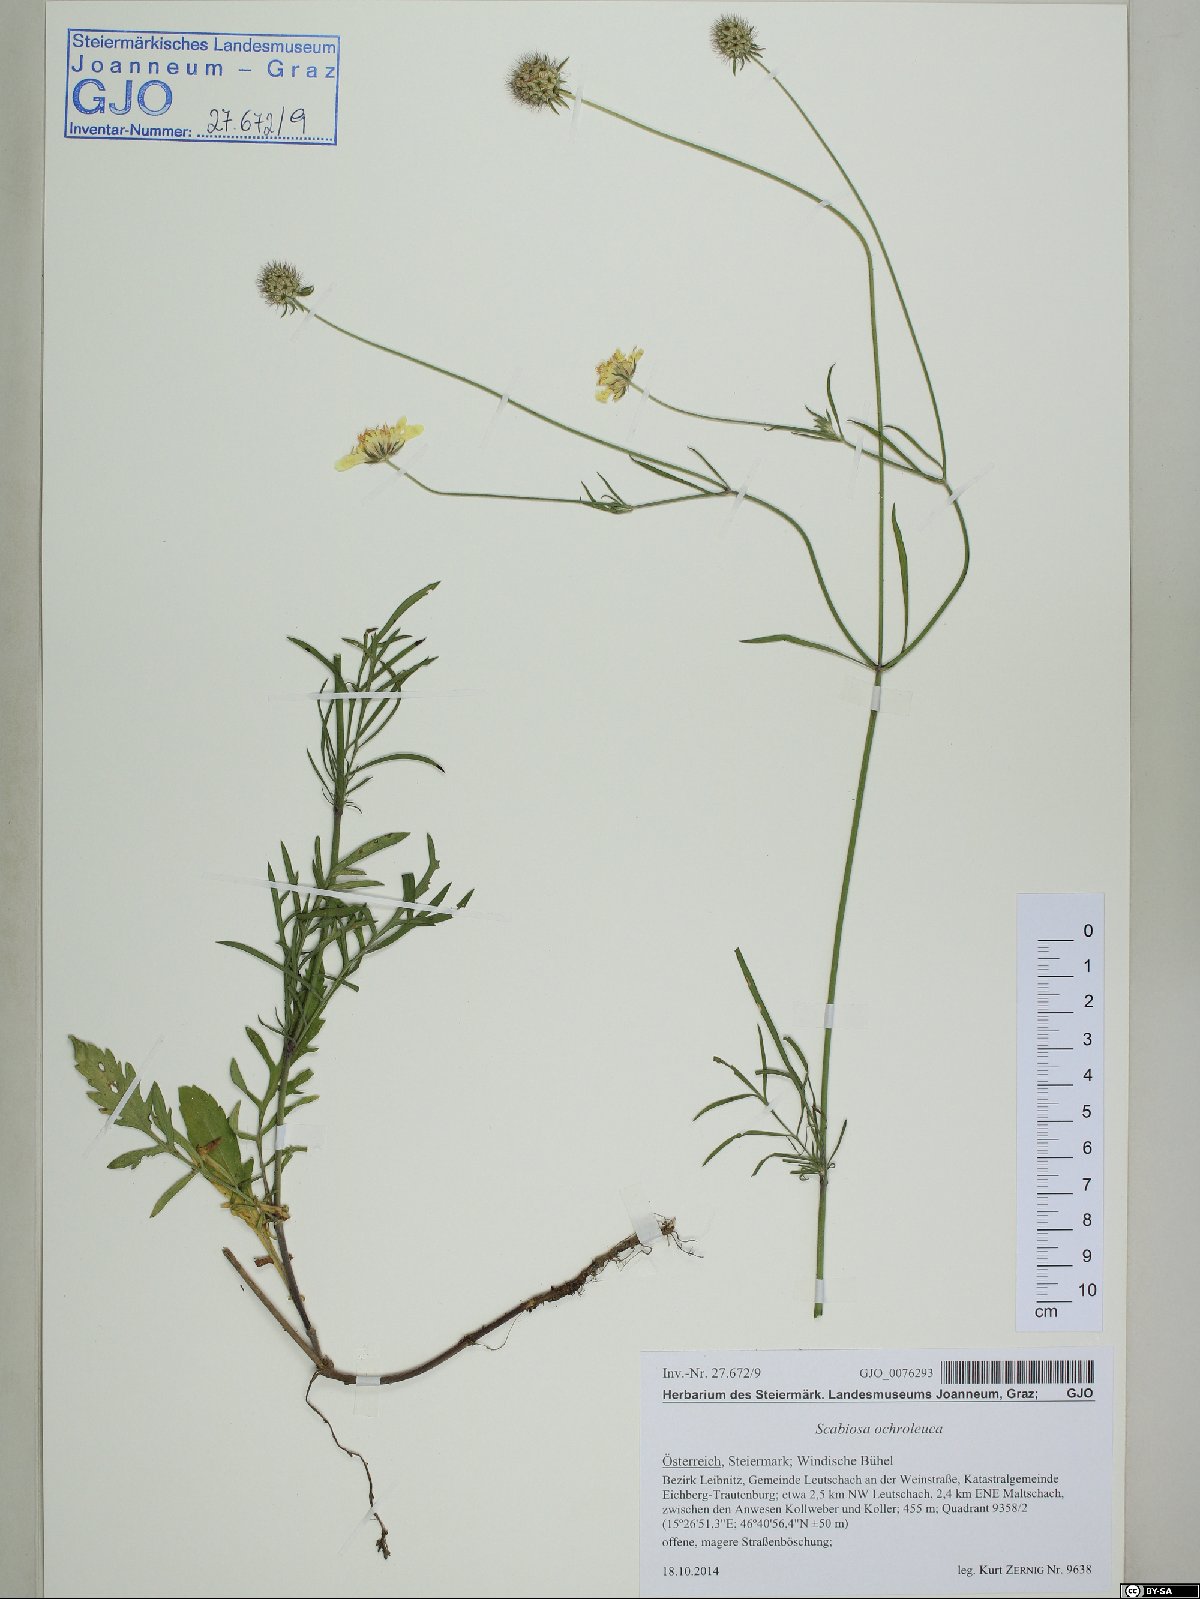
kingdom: Plantae
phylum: Tracheophyta
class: Magnoliopsida
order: Dipsacales
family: Caprifoliaceae
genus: Scabiosa
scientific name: Scabiosa ochroleuca
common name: Cream pincushions
